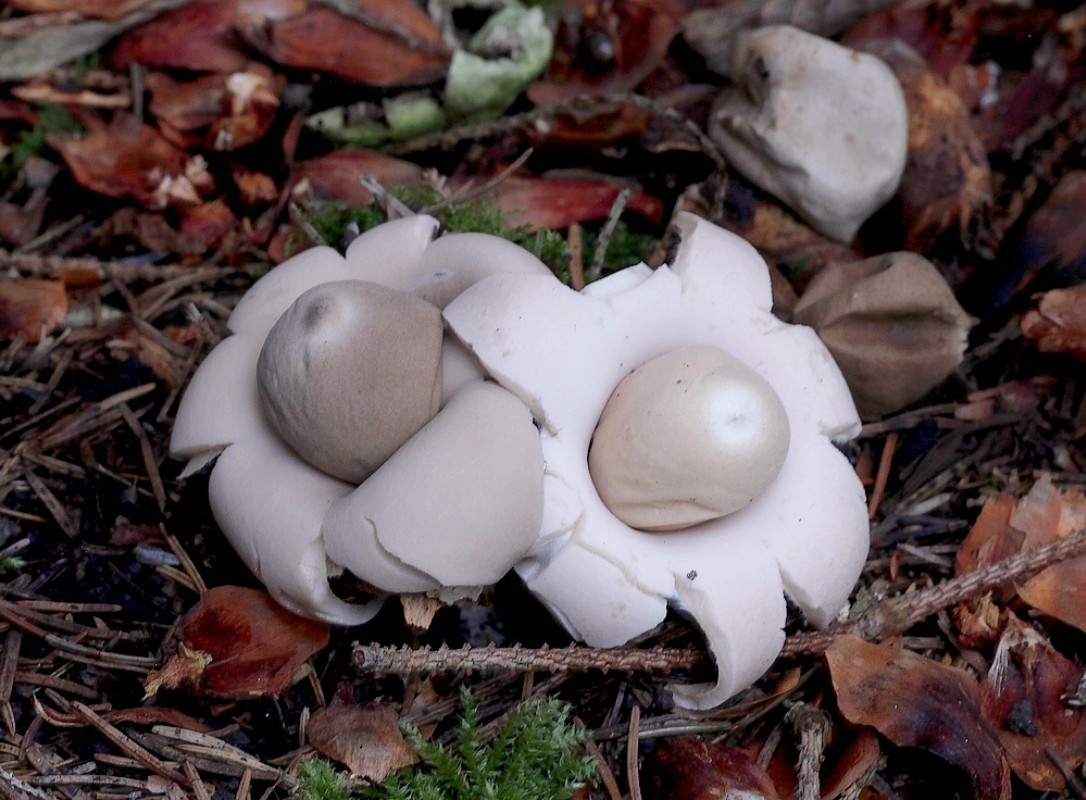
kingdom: Fungi
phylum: Basidiomycota
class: Agaricomycetes
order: Geastrales
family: Geastraceae
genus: Geastrum
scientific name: Geastrum fimbriatum
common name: frynset stjernebold
